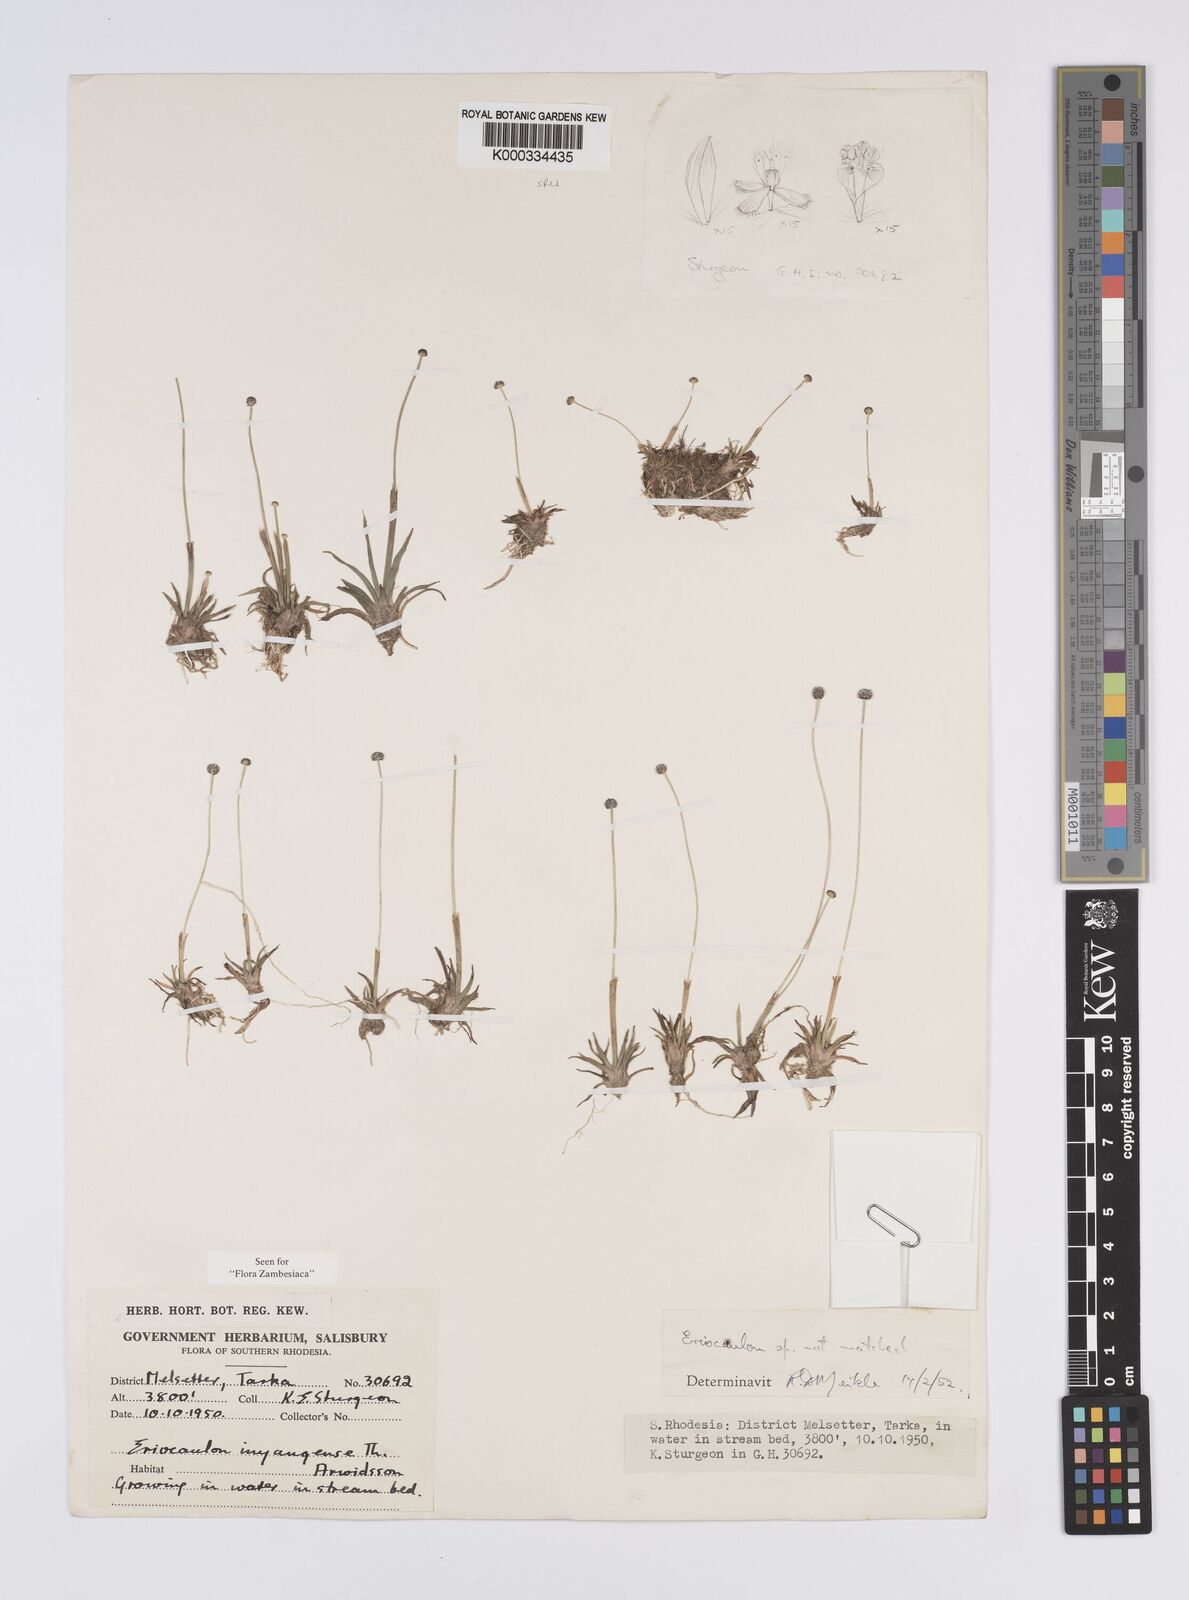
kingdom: Plantae
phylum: Tracheophyta
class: Liliopsida
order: Poales
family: Eriocaulaceae
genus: Eriocaulon
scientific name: Eriocaulon inyangense
